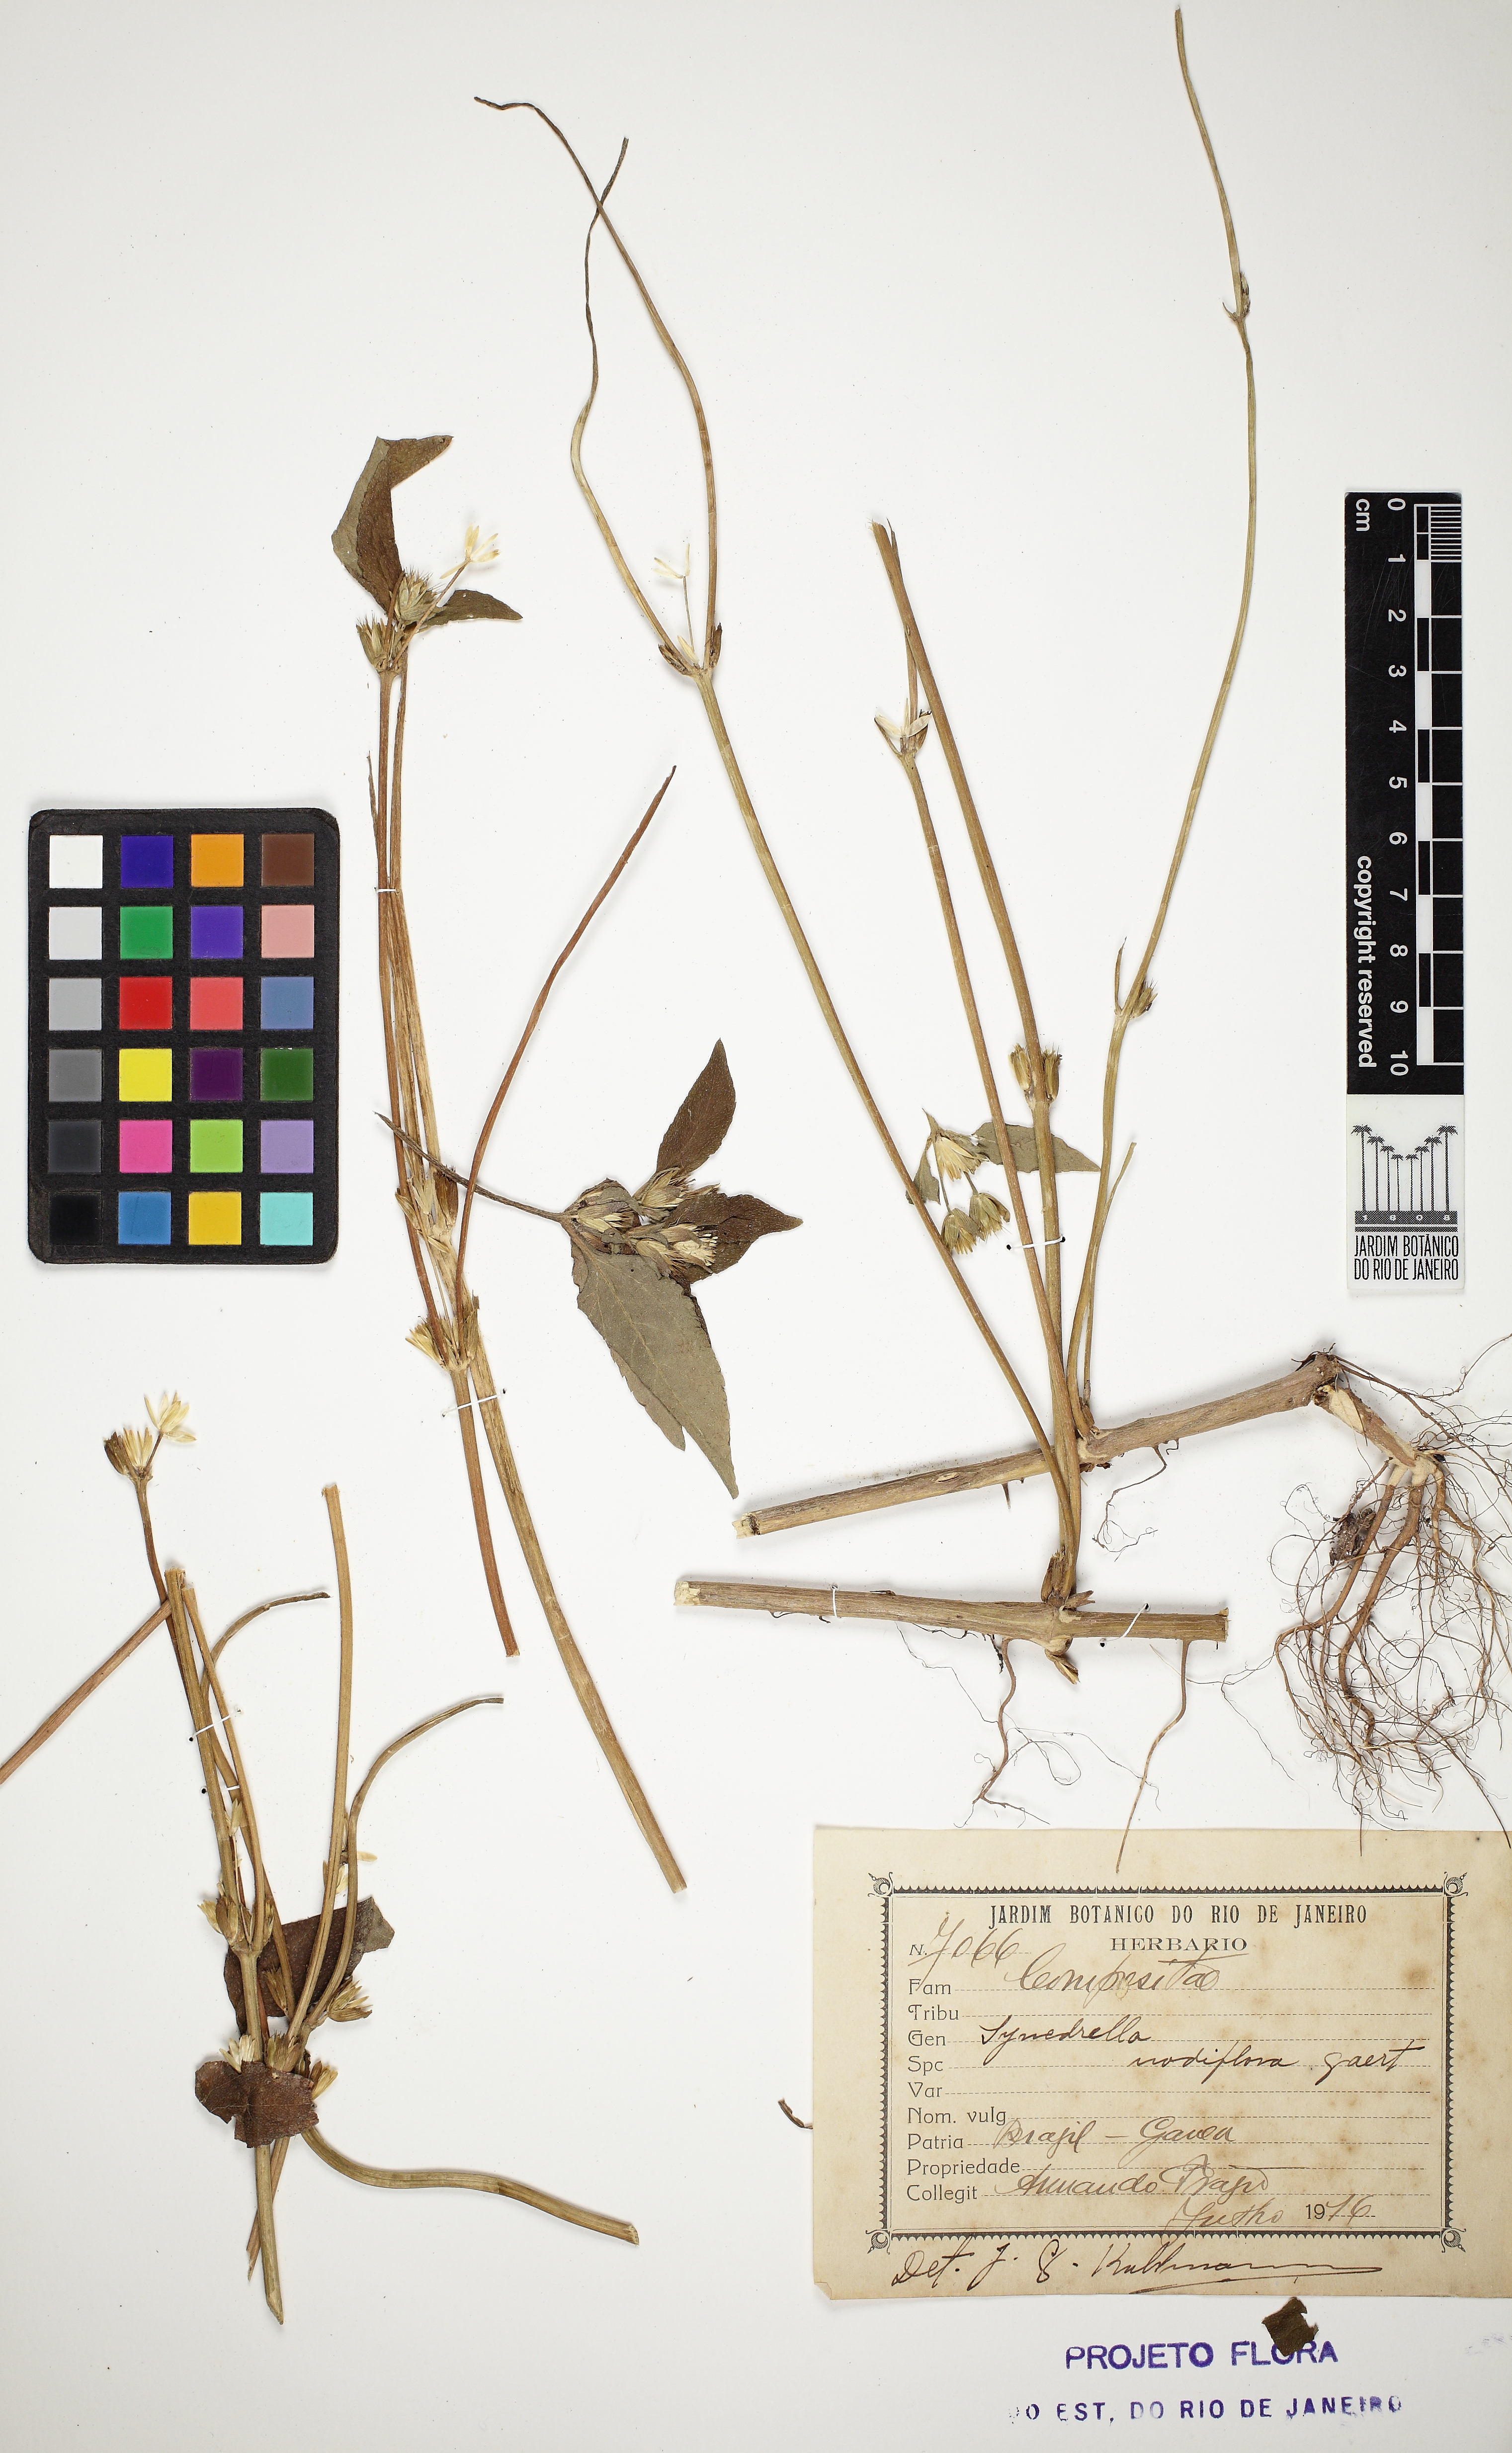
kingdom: Plantae
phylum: Tracheophyta
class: Magnoliopsida
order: Asterales
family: Asteraceae
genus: Synedrella
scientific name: Synedrella nodiflora
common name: Nodeweed
